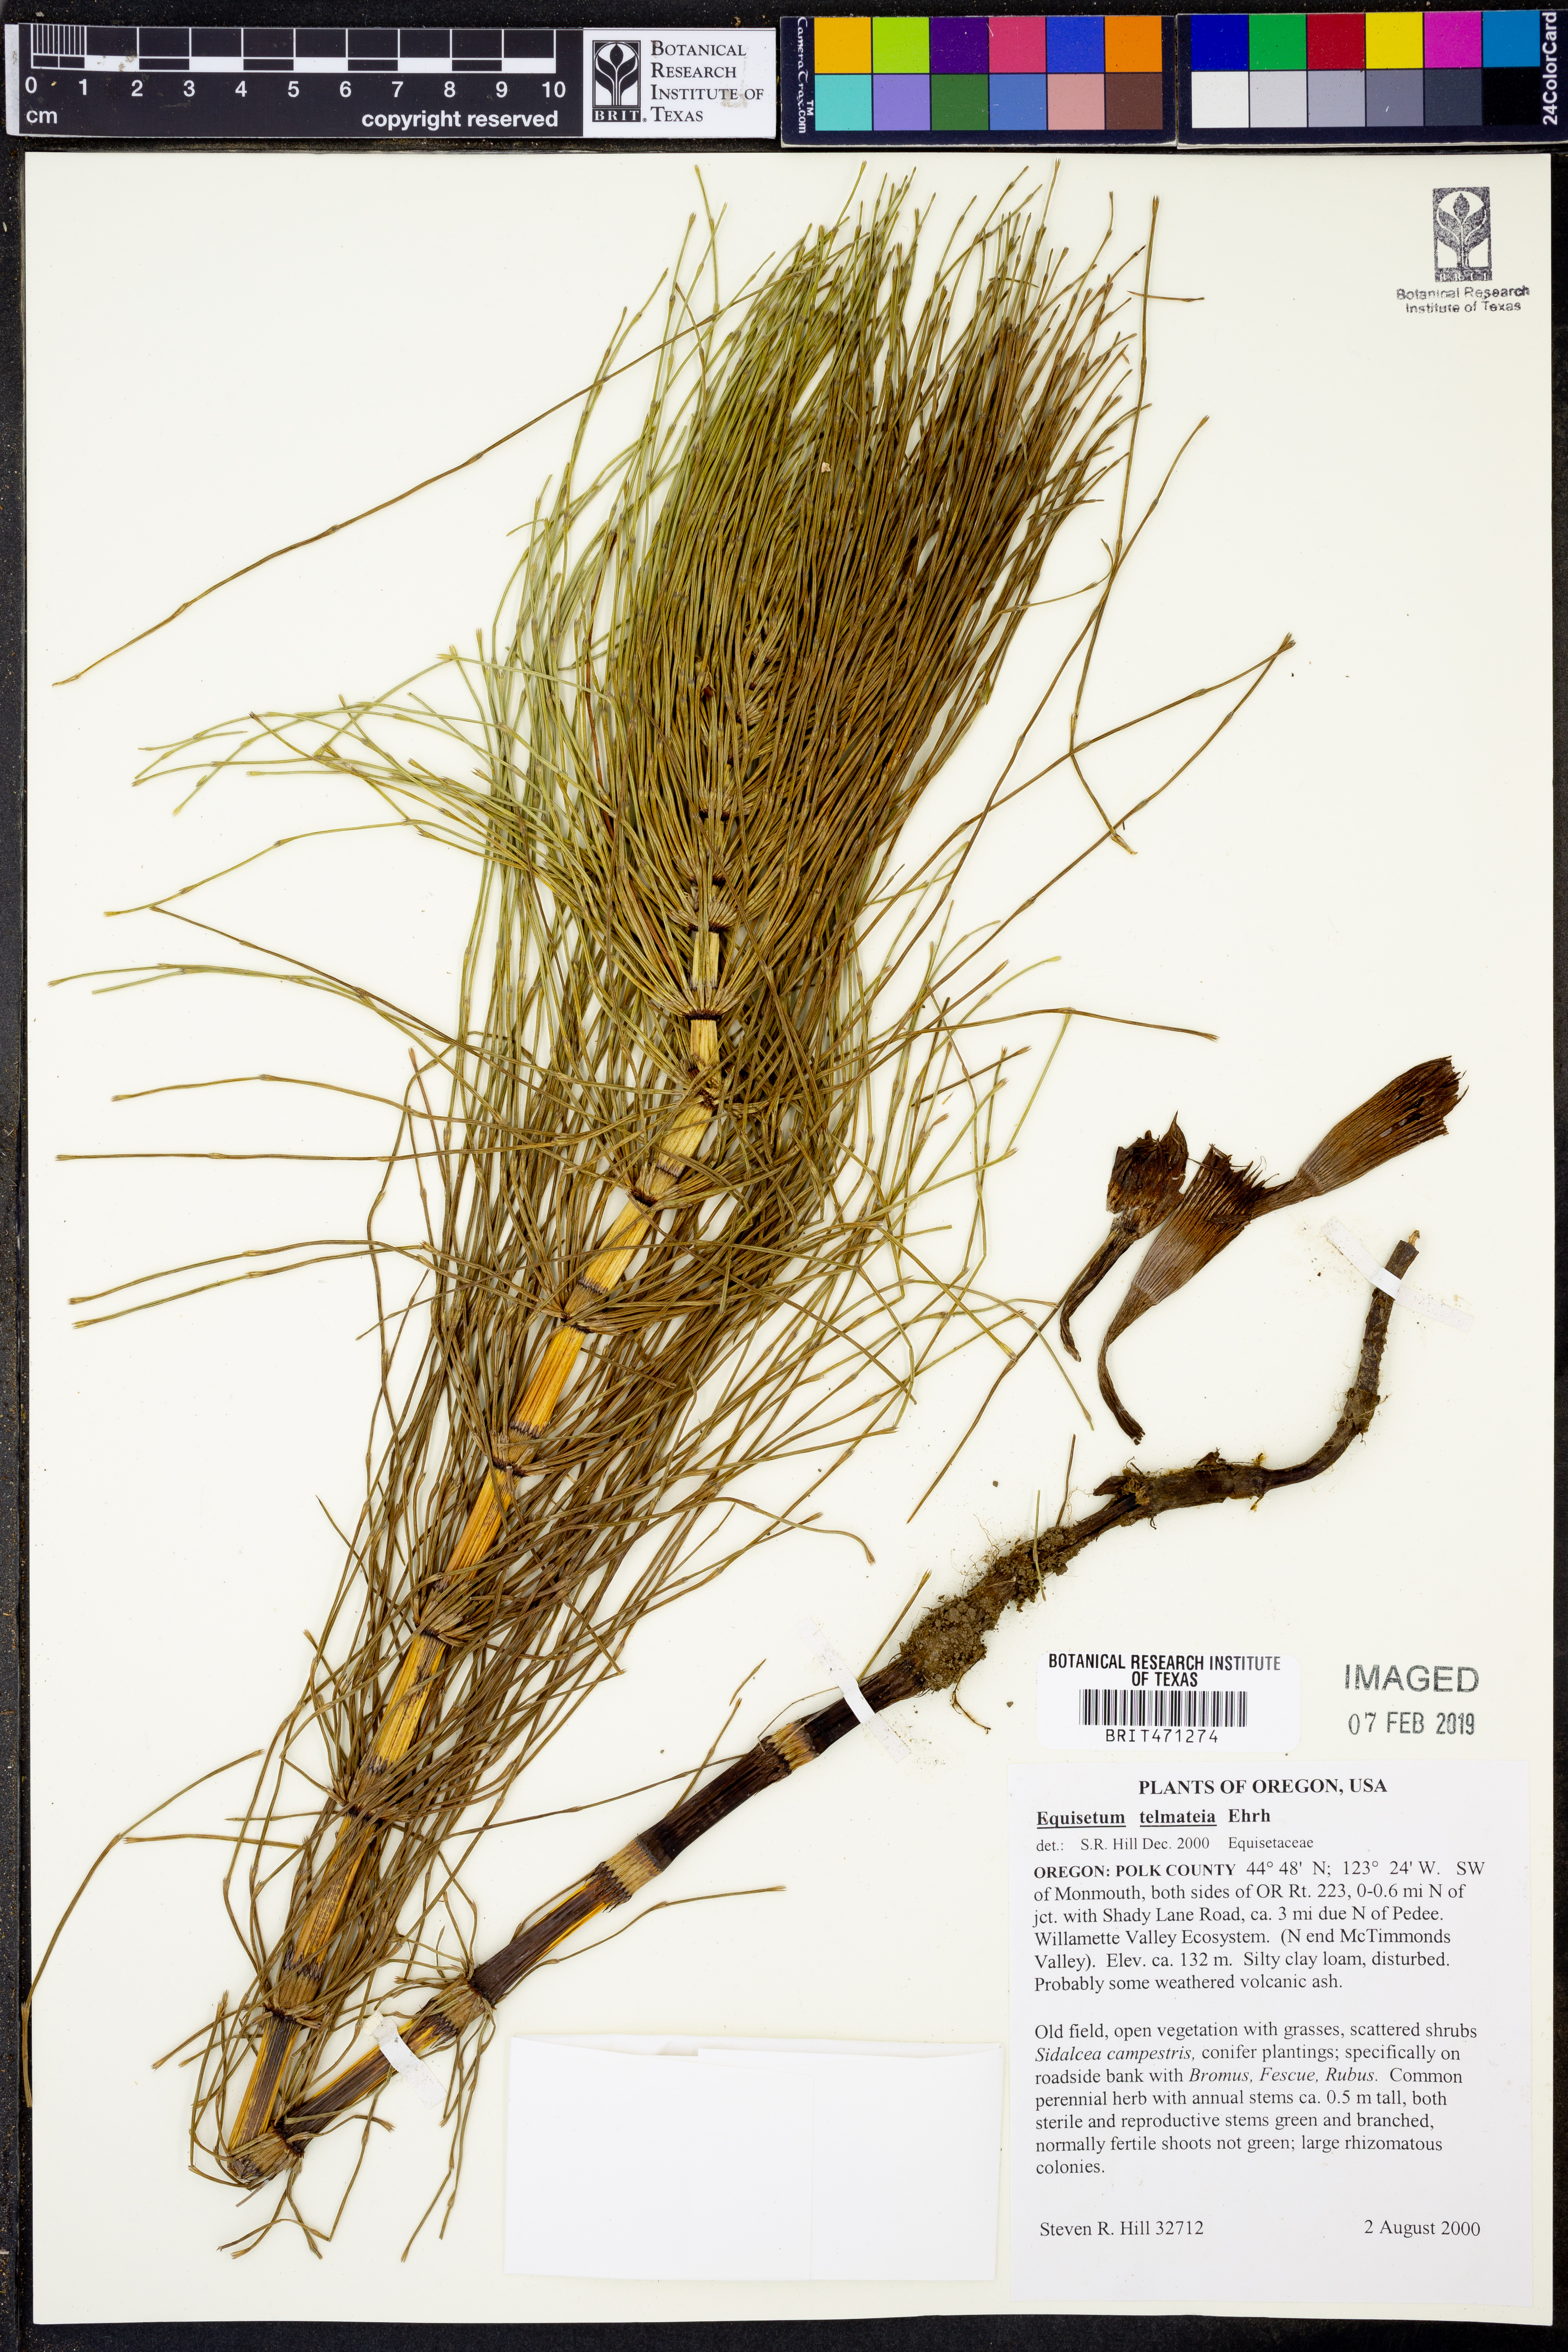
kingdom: Plantae
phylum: Tracheophyta
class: Polypodiopsida
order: Equisetales
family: Equisetaceae
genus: Equisetum
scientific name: Equisetum telmateia
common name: Great horsetail
